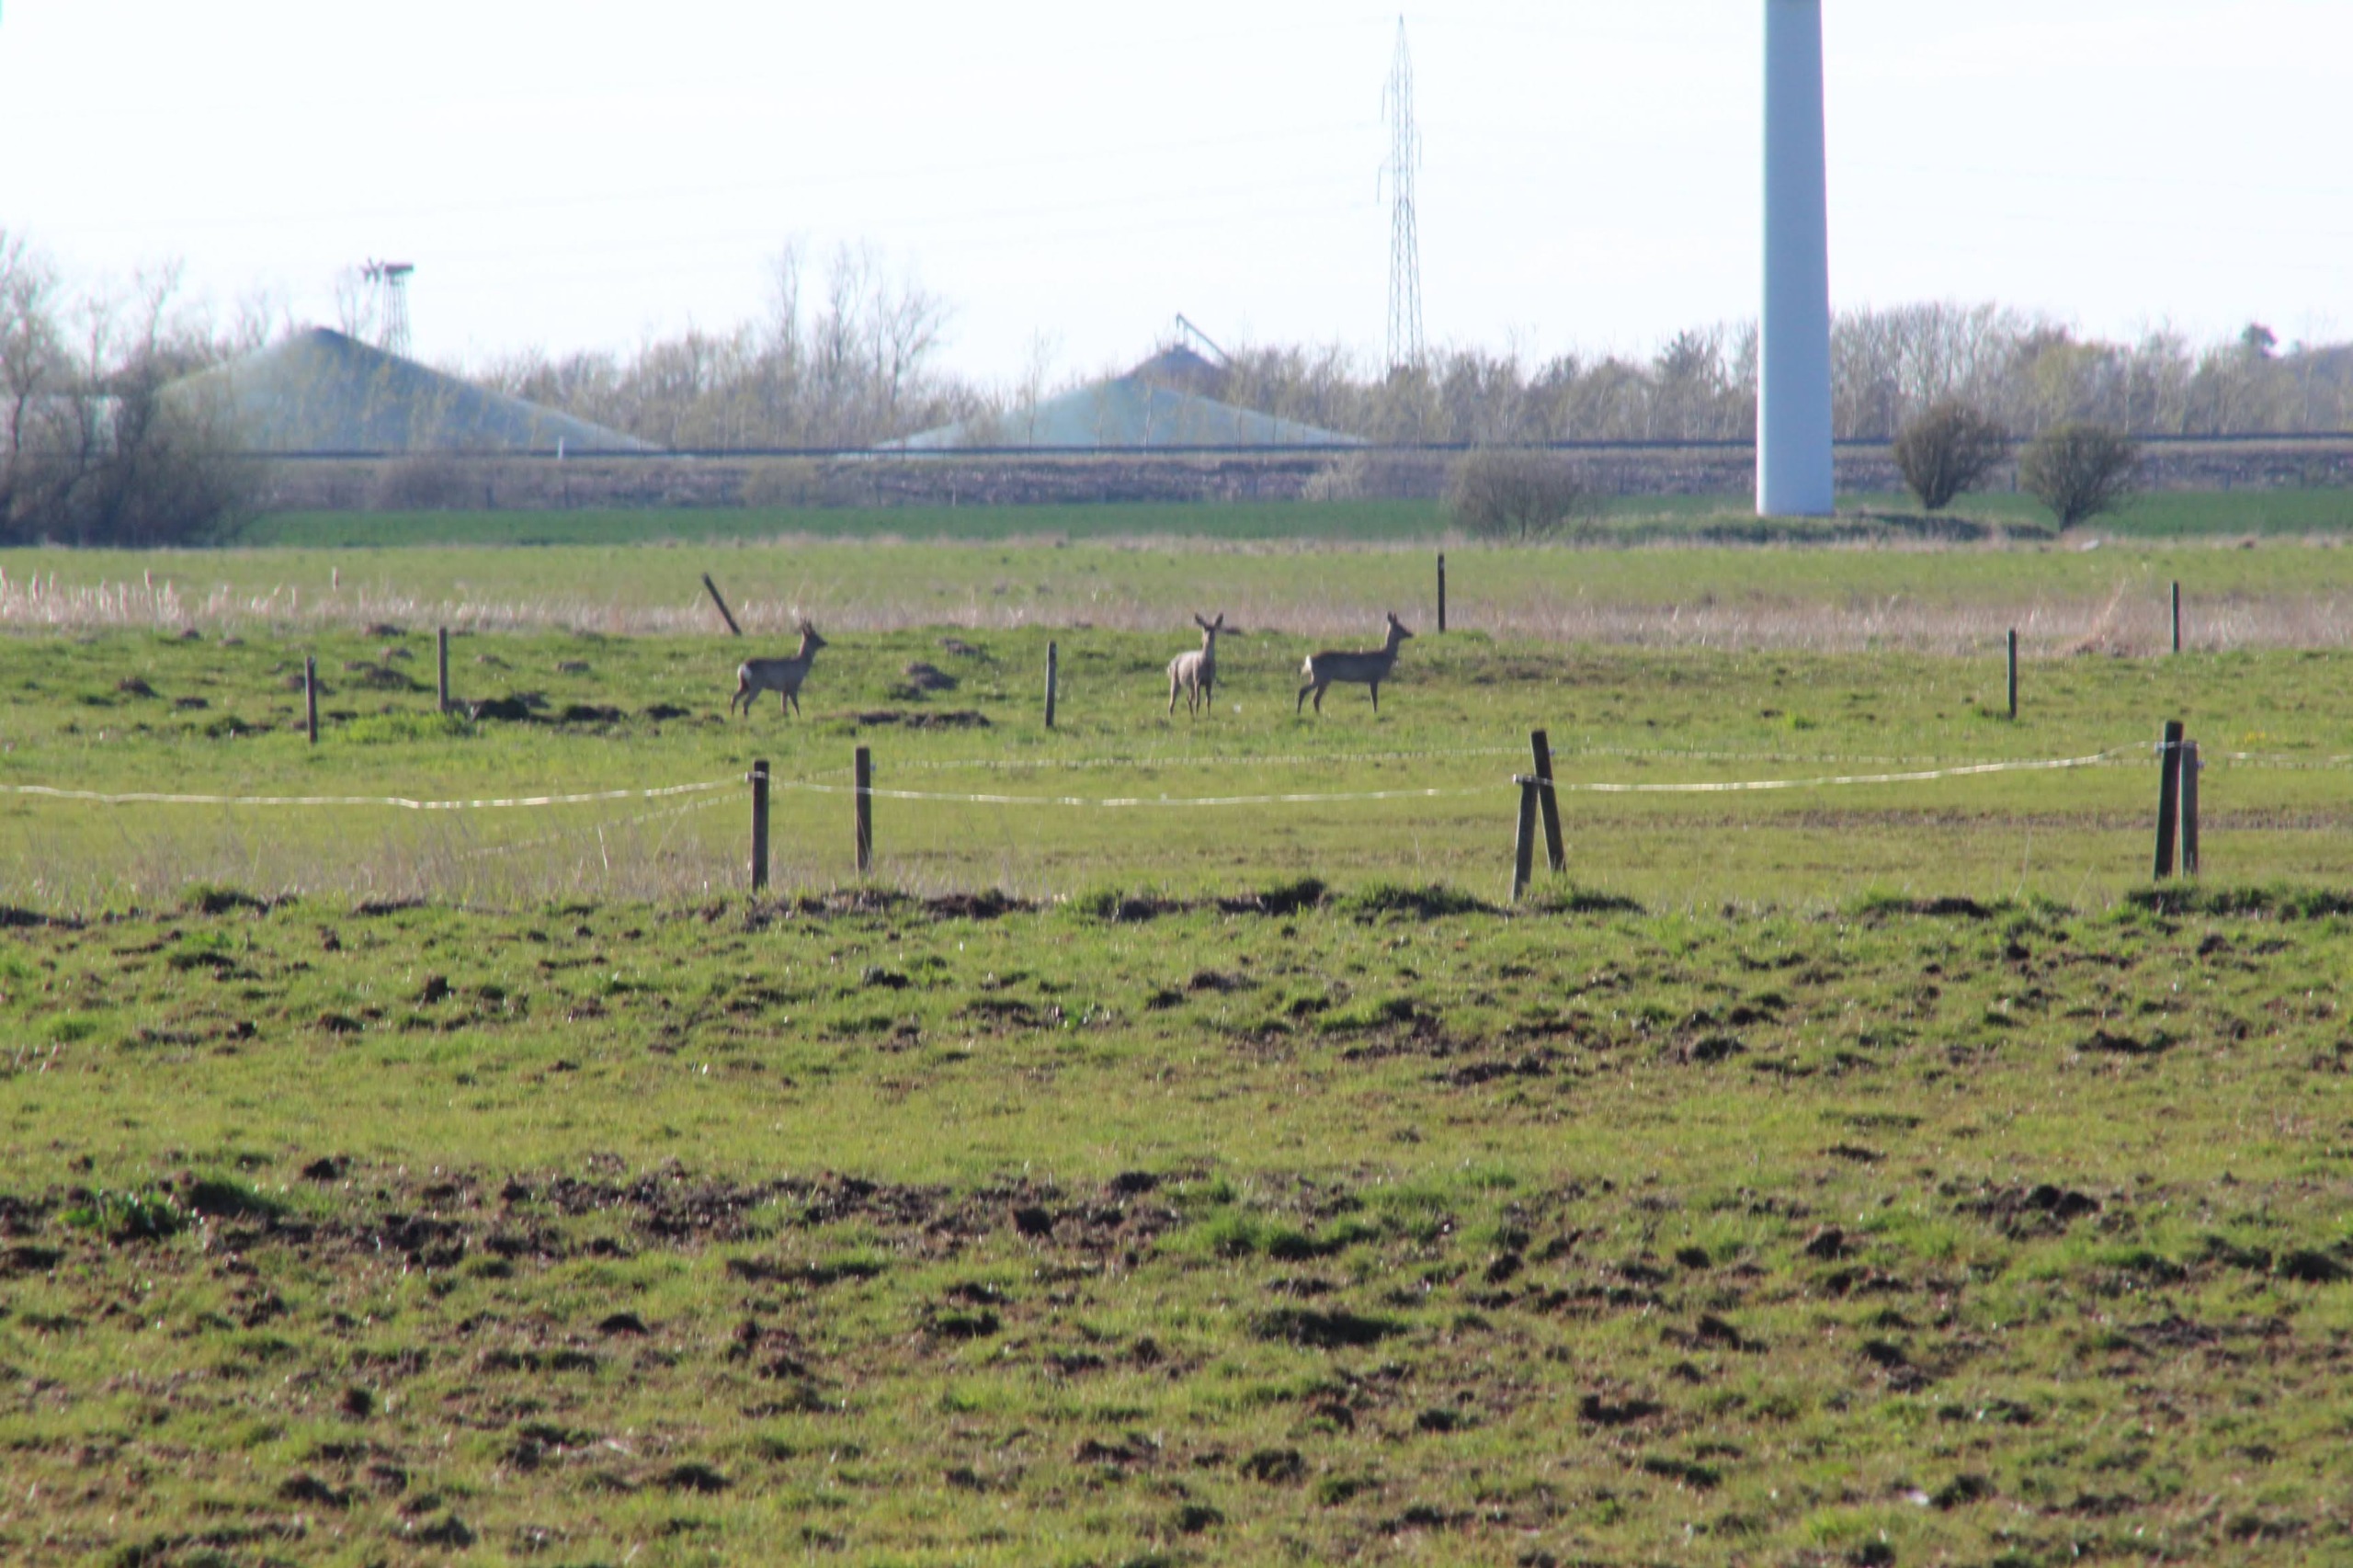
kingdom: Animalia
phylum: Chordata
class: Mammalia
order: Artiodactyla
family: Cervidae
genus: Capreolus
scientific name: Capreolus capreolus
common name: Rådyr
